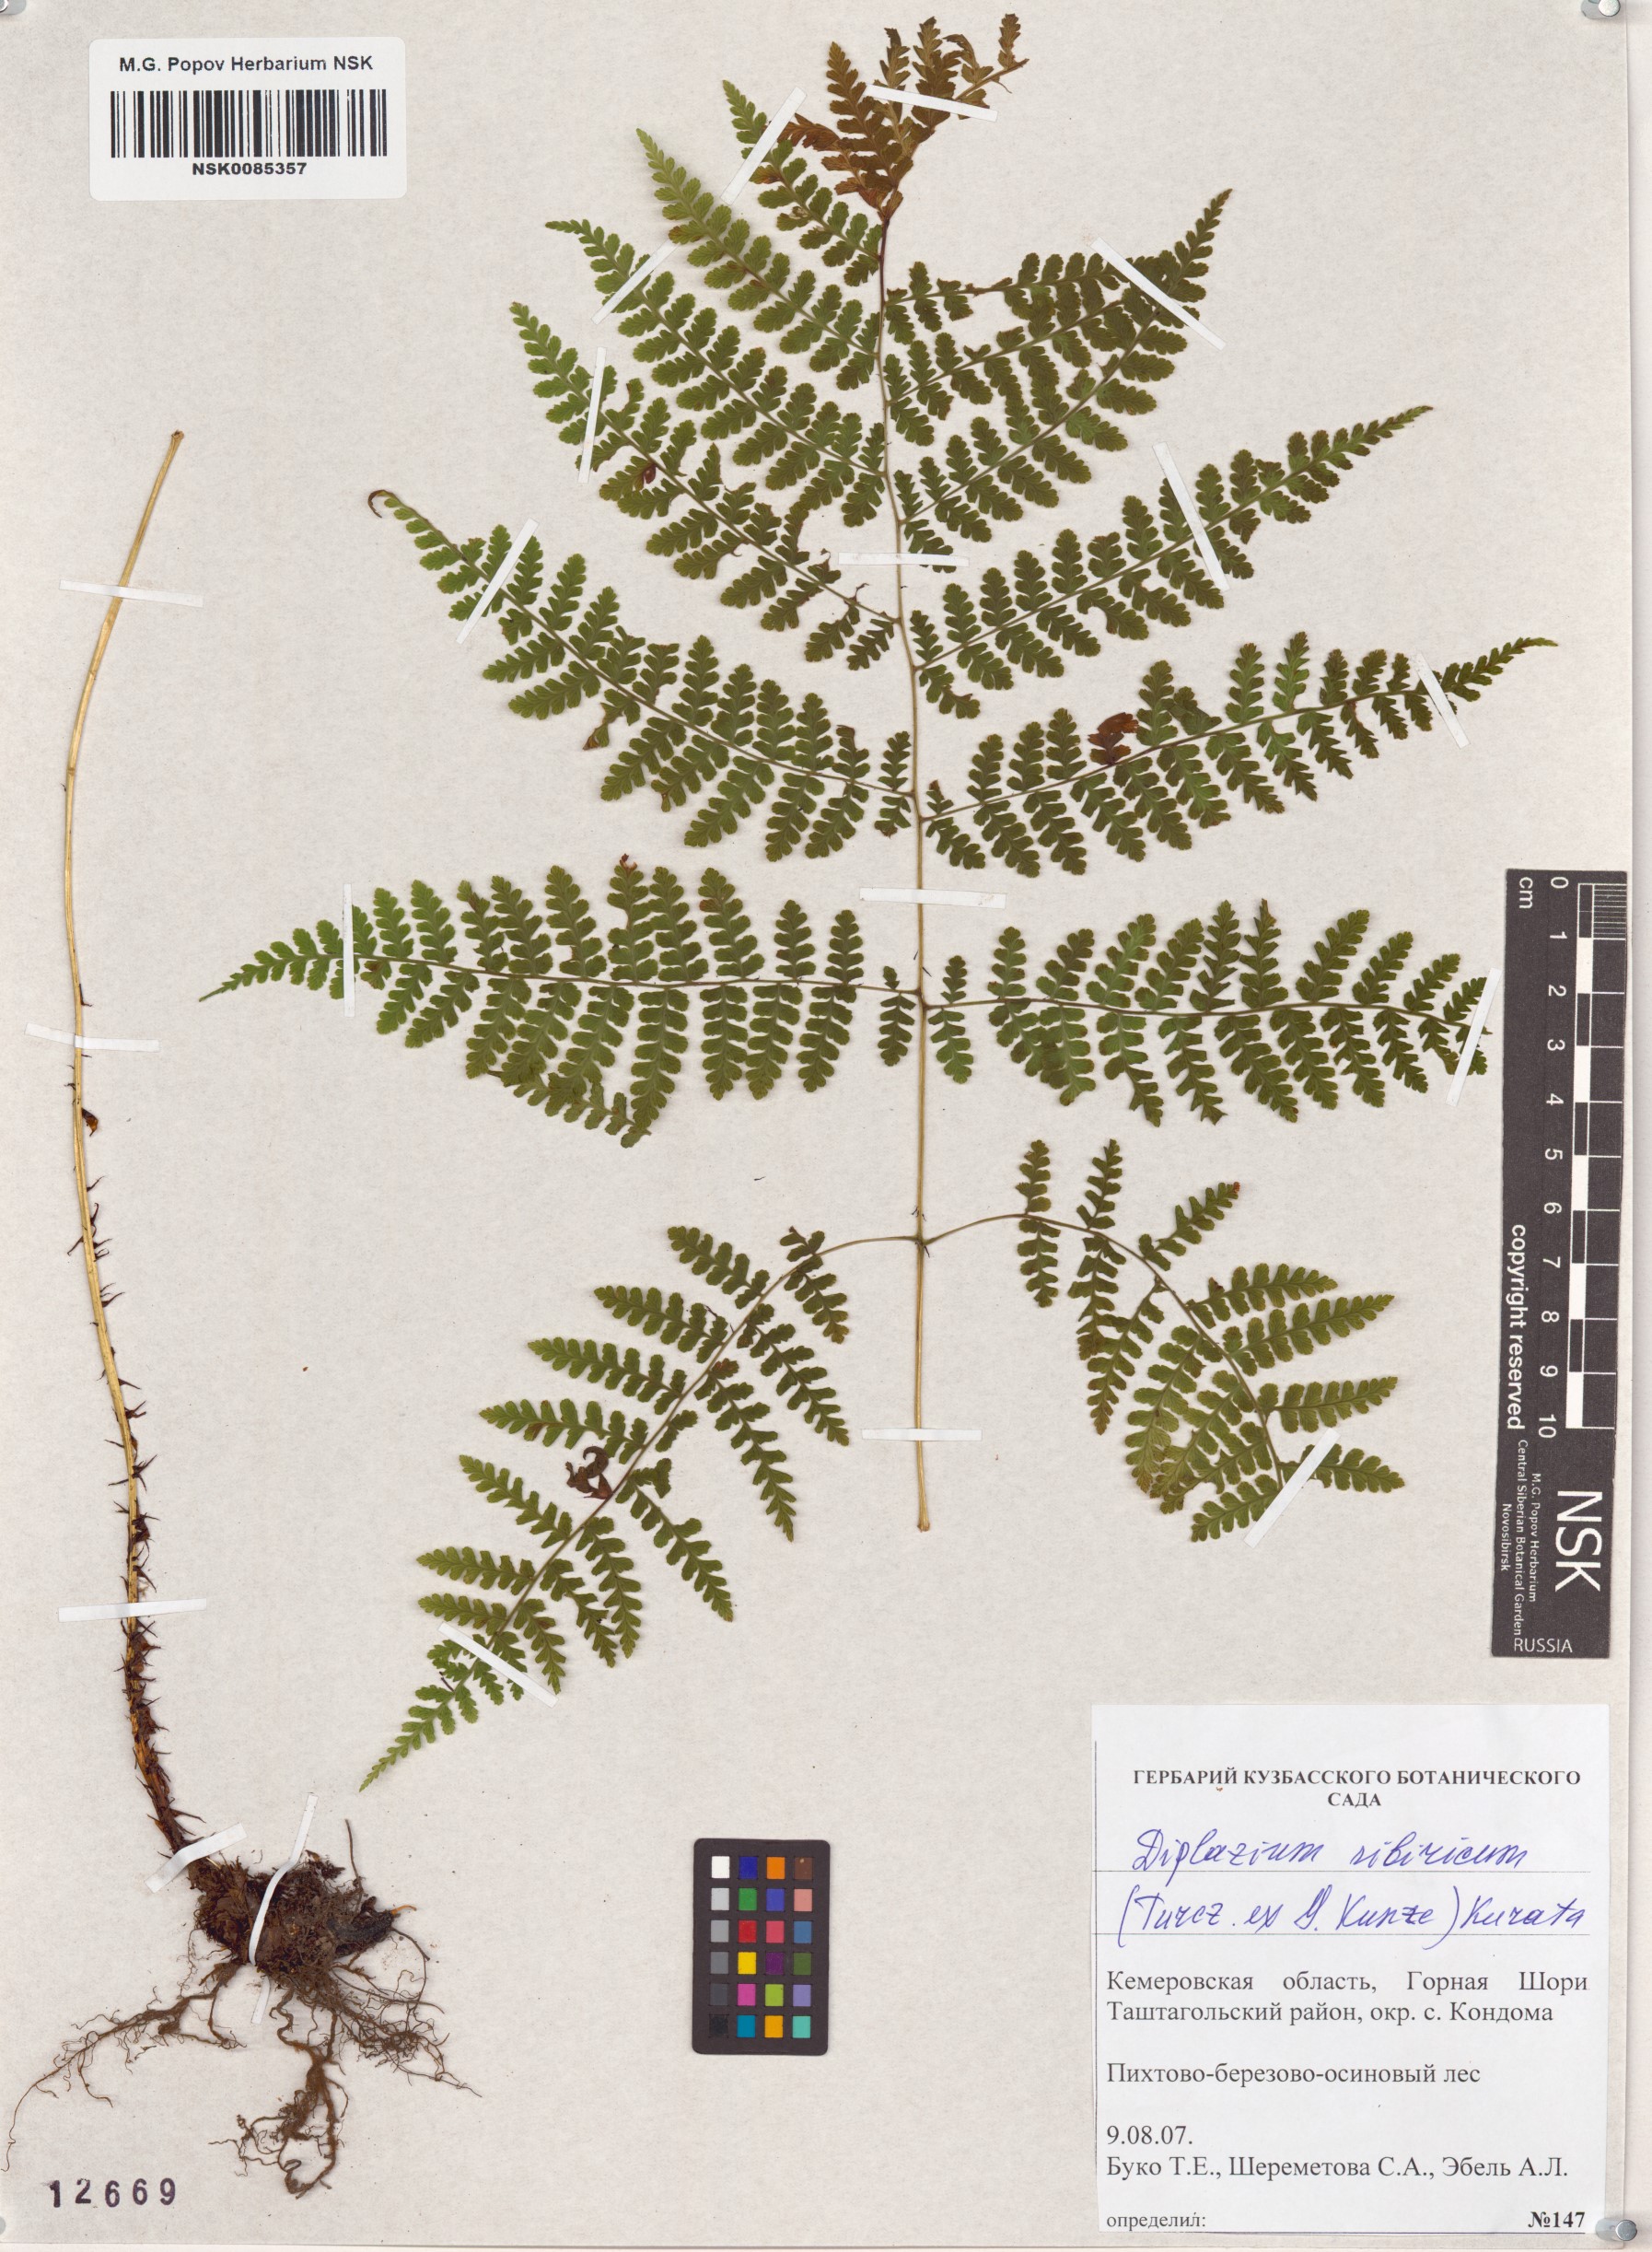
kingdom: Plantae
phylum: Tracheophyta
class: Polypodiopsida
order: Polypodiales
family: Athyriaceae
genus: Diplazium
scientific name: Diplazium sibiricum
